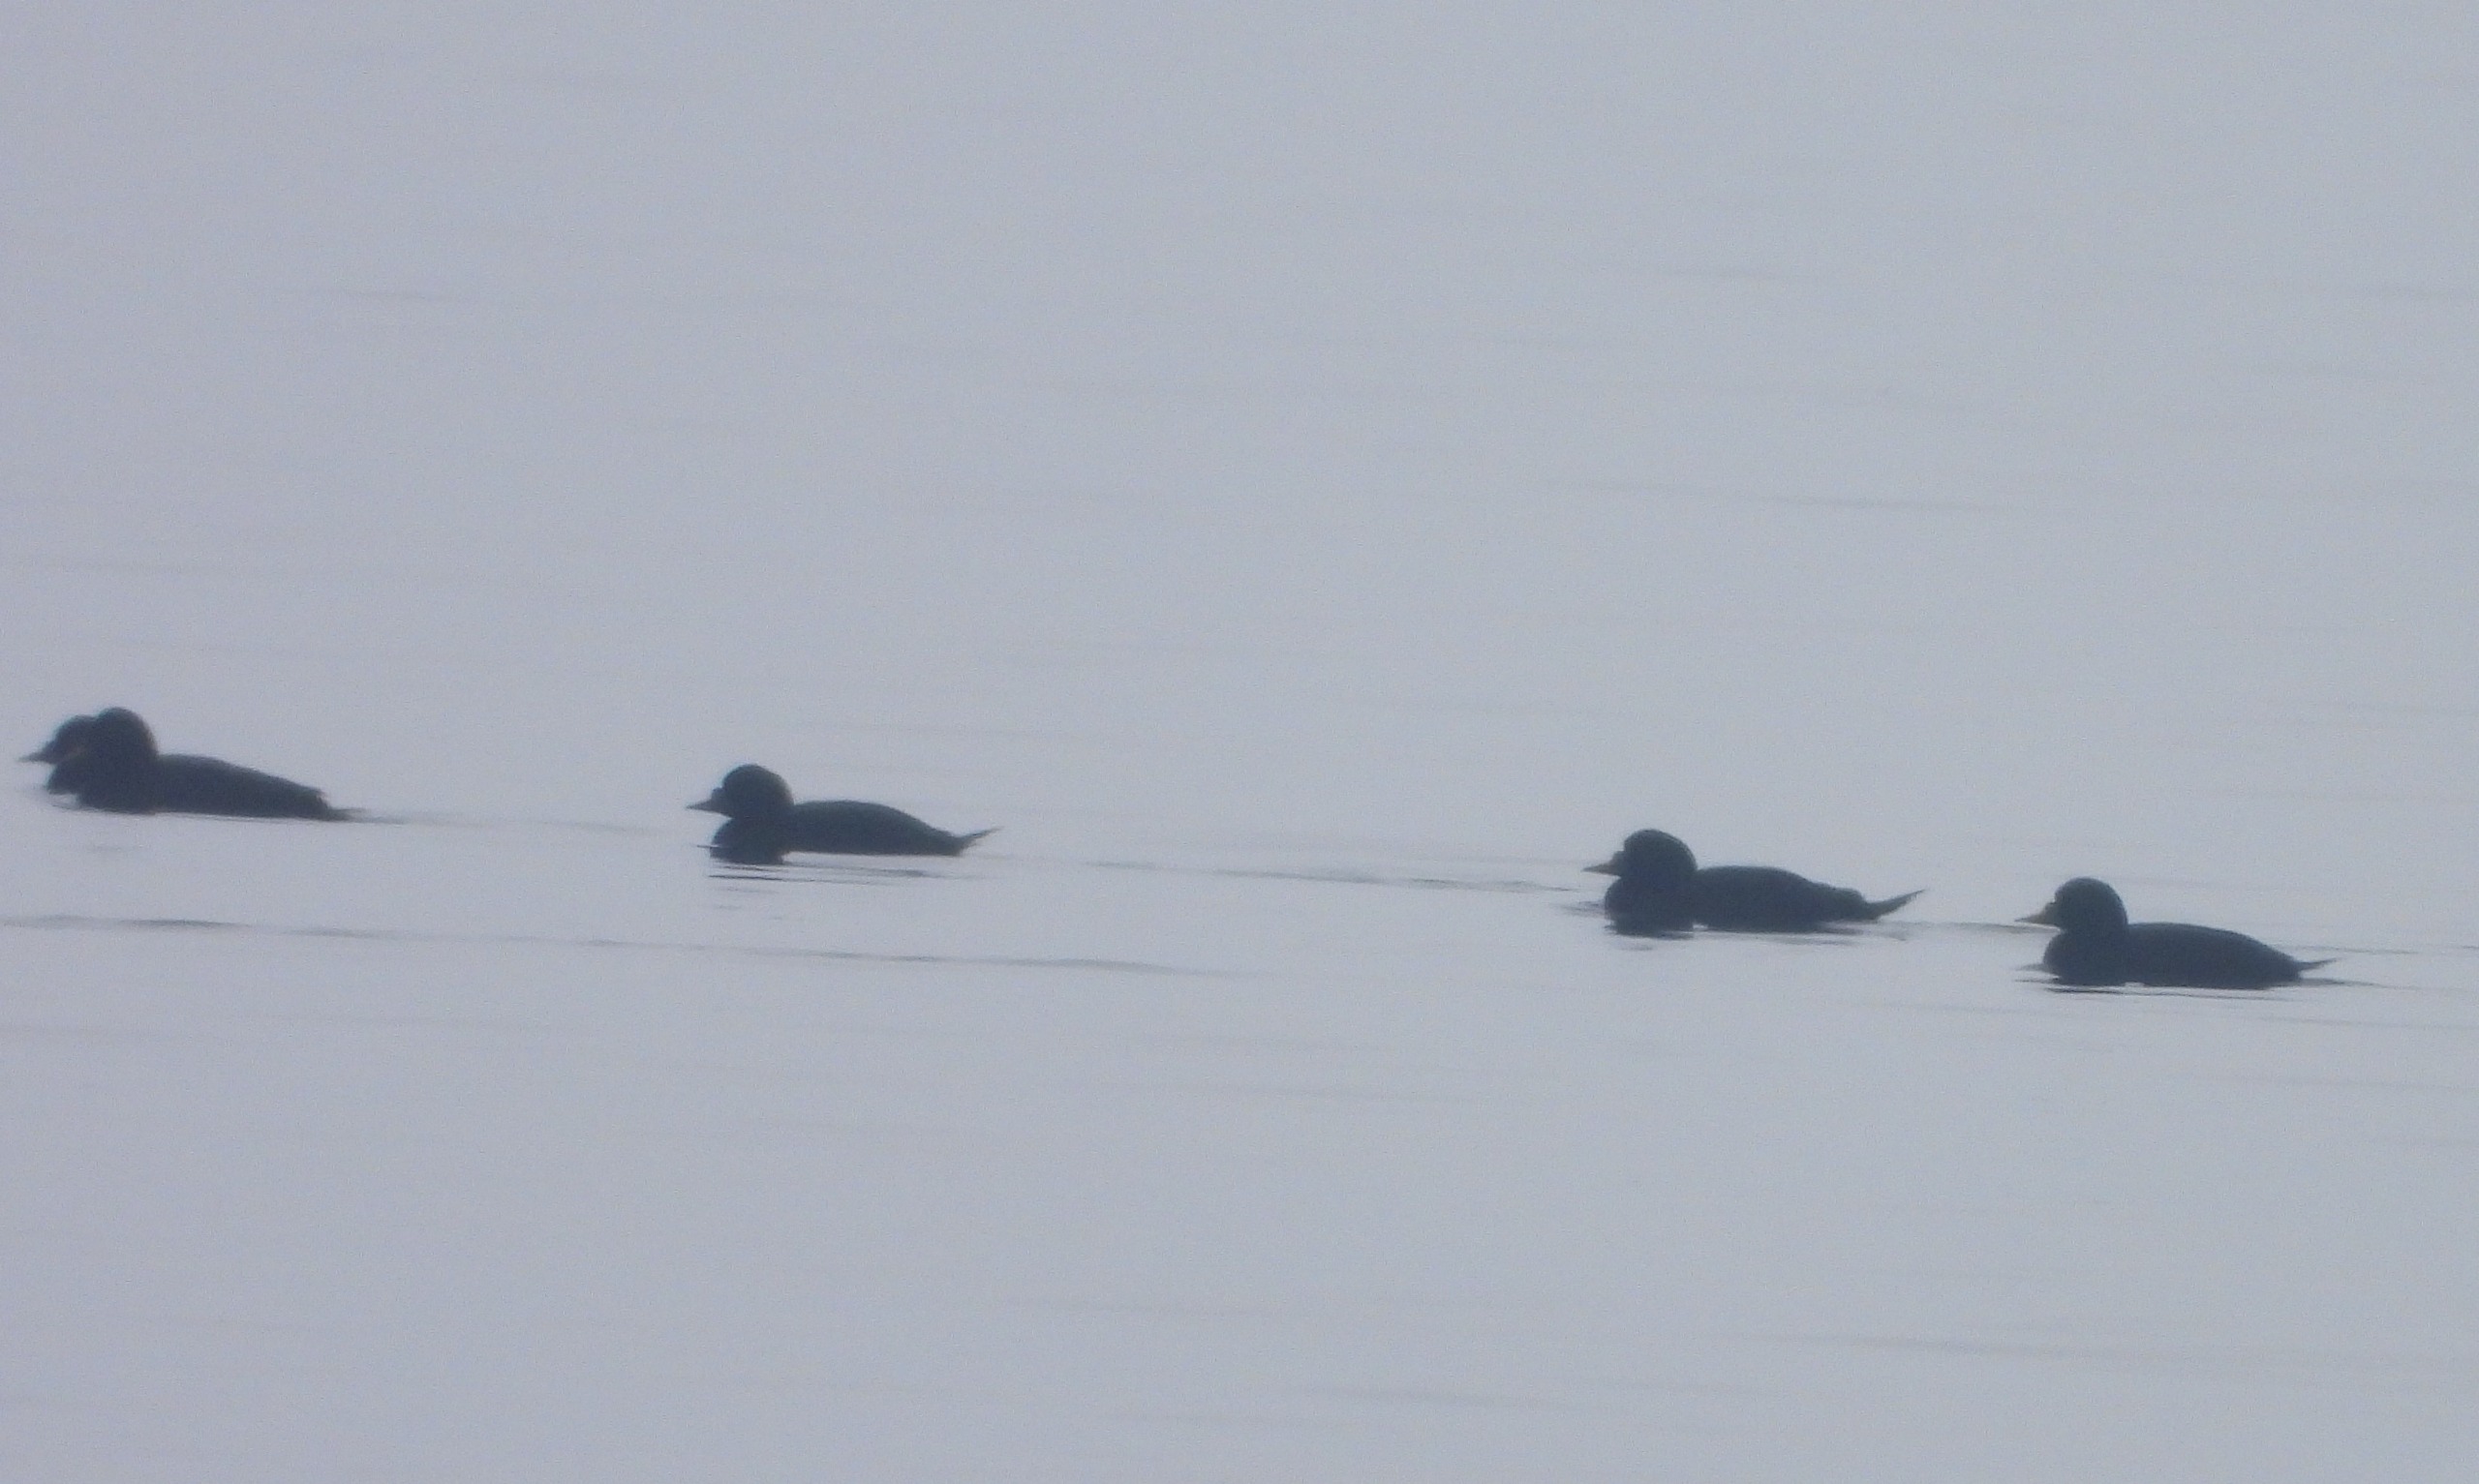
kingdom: Animalia
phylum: Chordata
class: Aves
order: Anseriformes
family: Anatidae
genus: Melanitta
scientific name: Melanitta nigra
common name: Sortand
